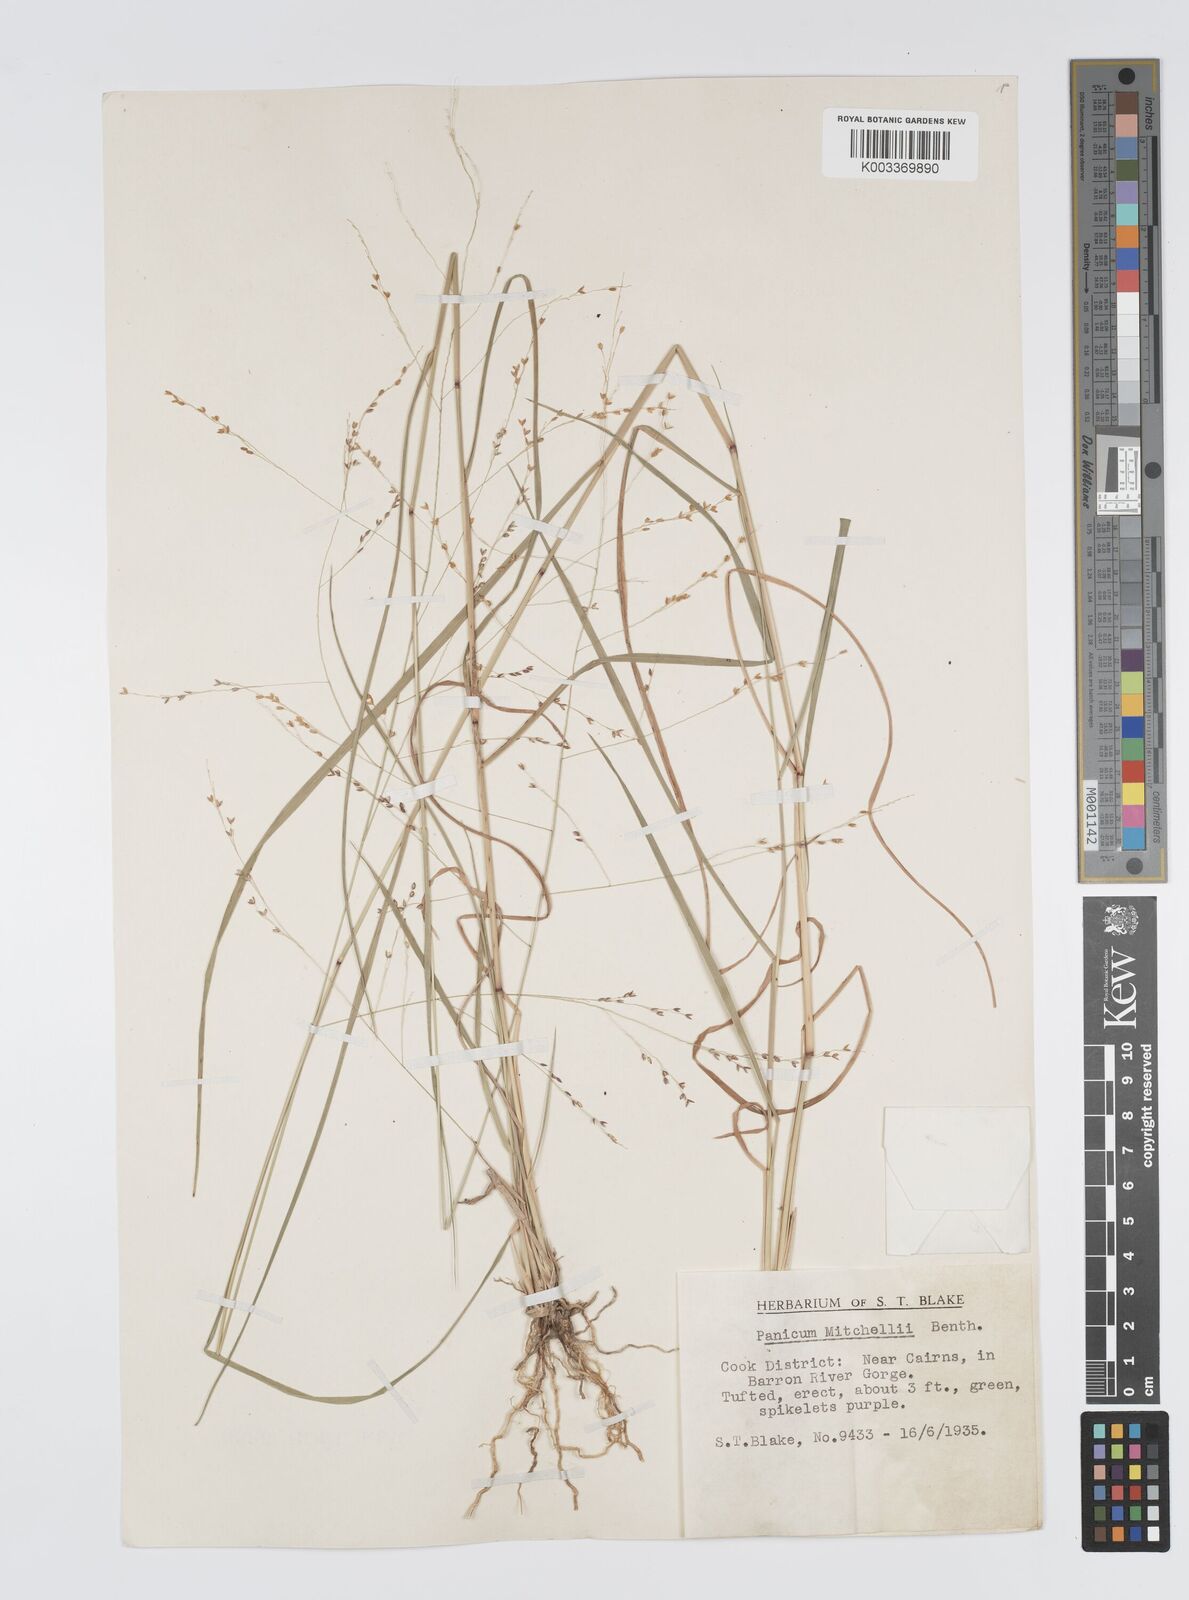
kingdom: Plantae
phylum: Tracheophyta
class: Liliopsida
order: Poales
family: Poaceae
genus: Panicum
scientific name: Panicum mitchellii
